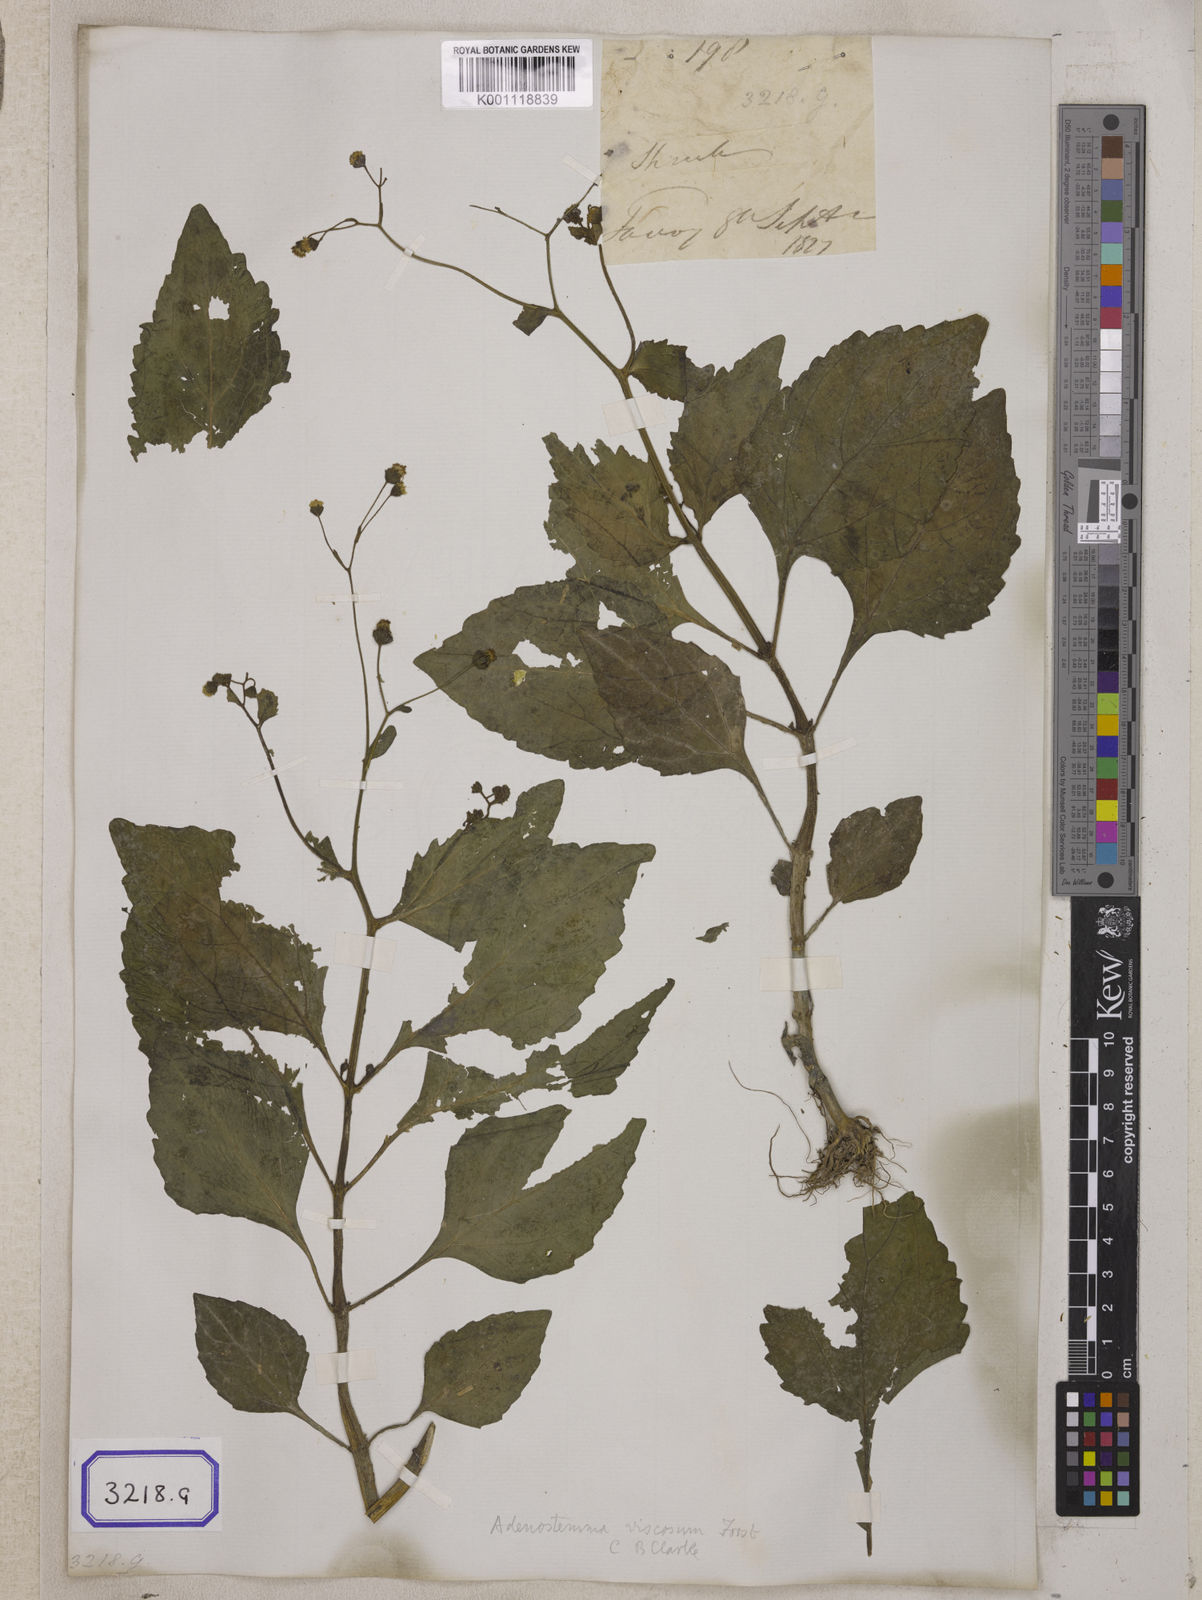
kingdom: Plantae
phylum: Tracheophyta
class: Magnoliopsida
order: Asterales
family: Asteraceae
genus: Adenostemma
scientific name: Adenostemma viscosum
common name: Dungweed
